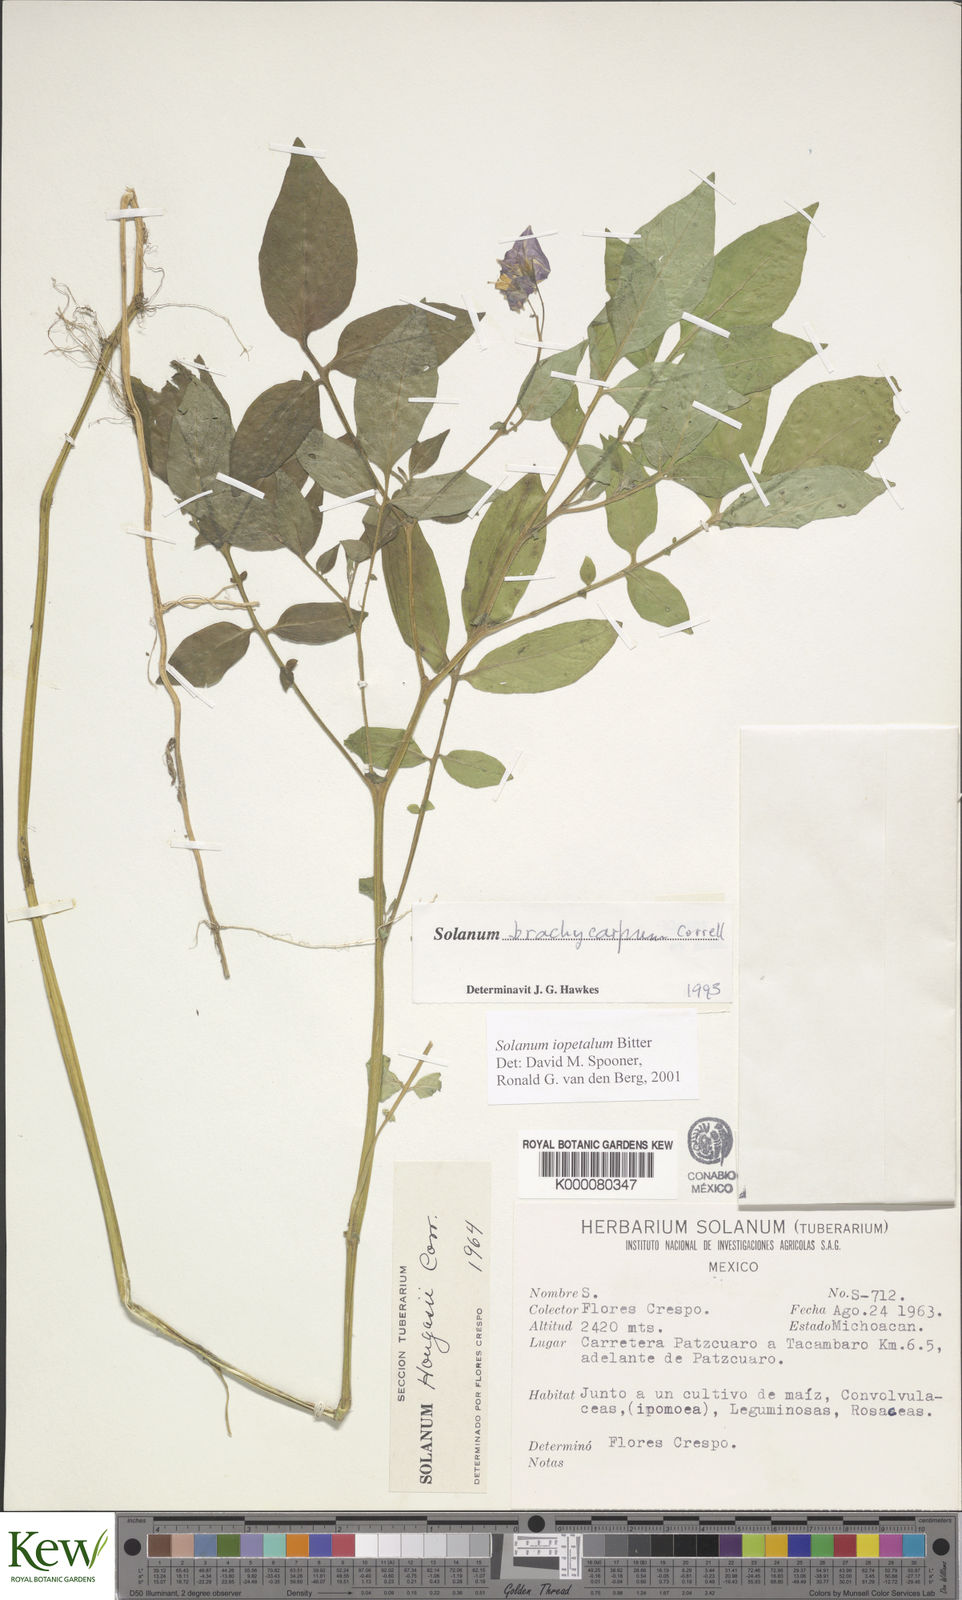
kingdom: Plantae
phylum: Tracheophyta
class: Magnoliopsida
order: Solanales
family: Solanaceae
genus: Solanum
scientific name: Solanum iopetalum
